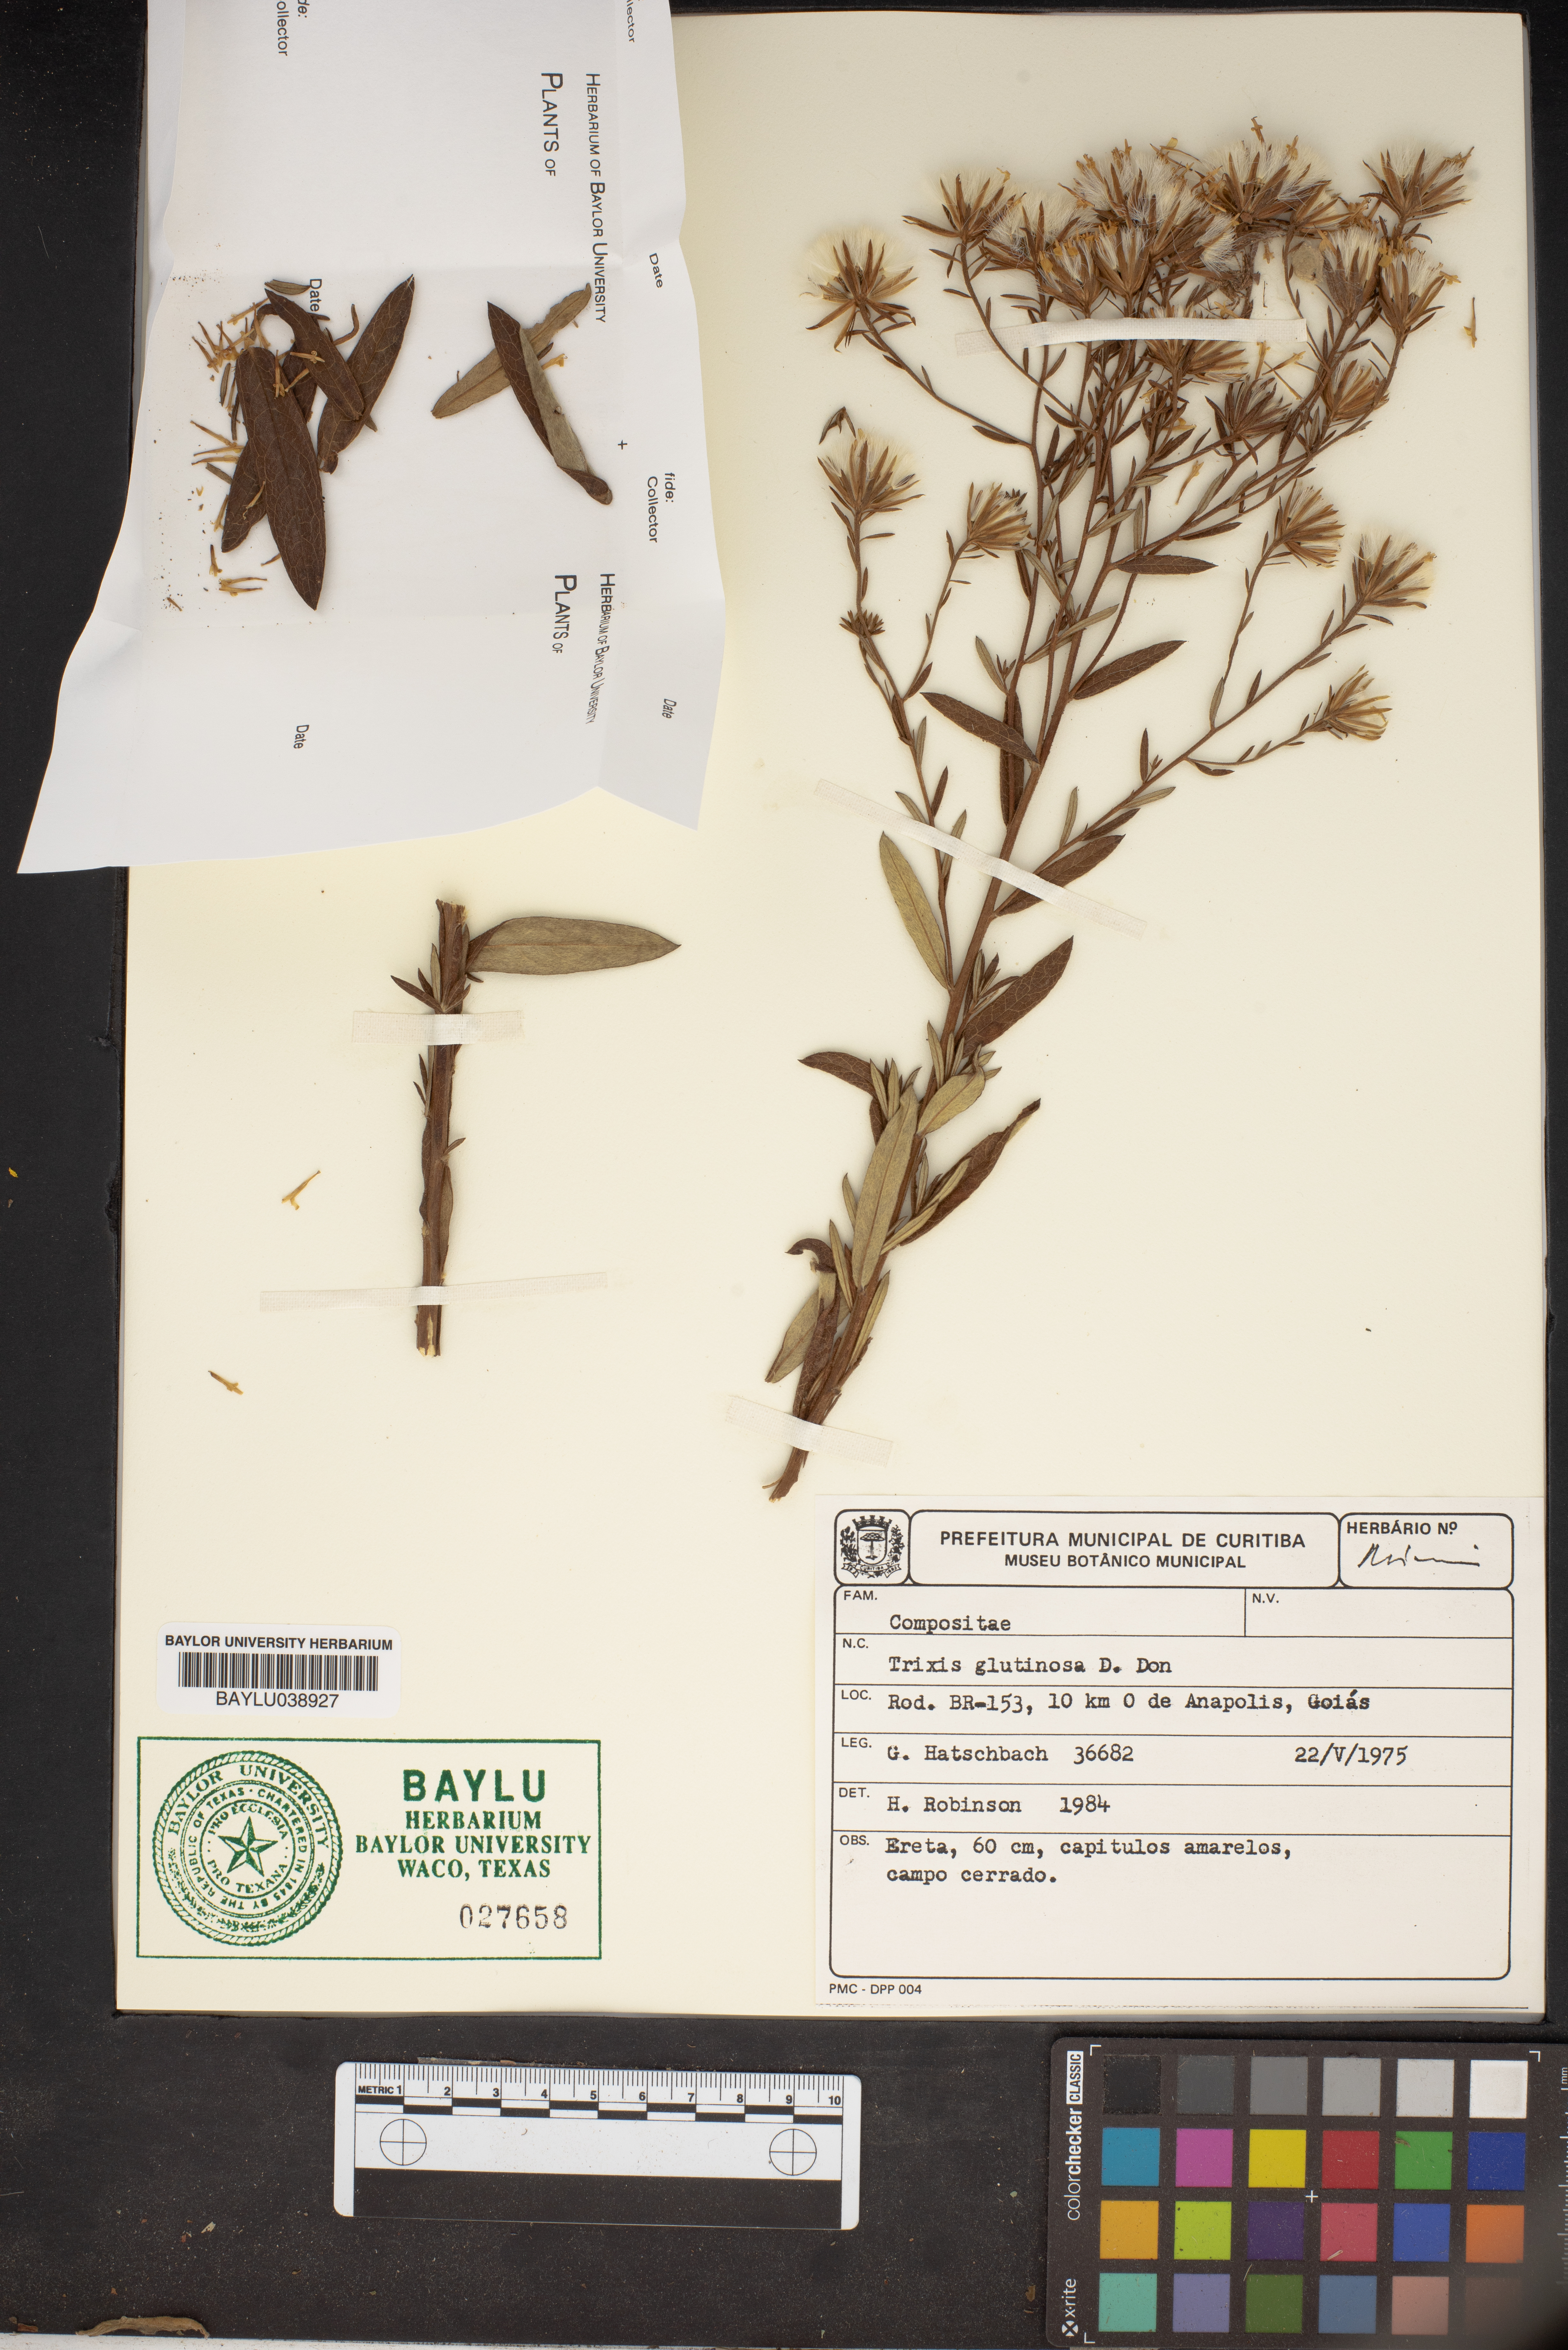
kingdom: Plantae
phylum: Tracheophyta
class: Magnoliopsida
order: Asterales
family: Asteraceae
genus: Trixis
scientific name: Trixis glutinosa
